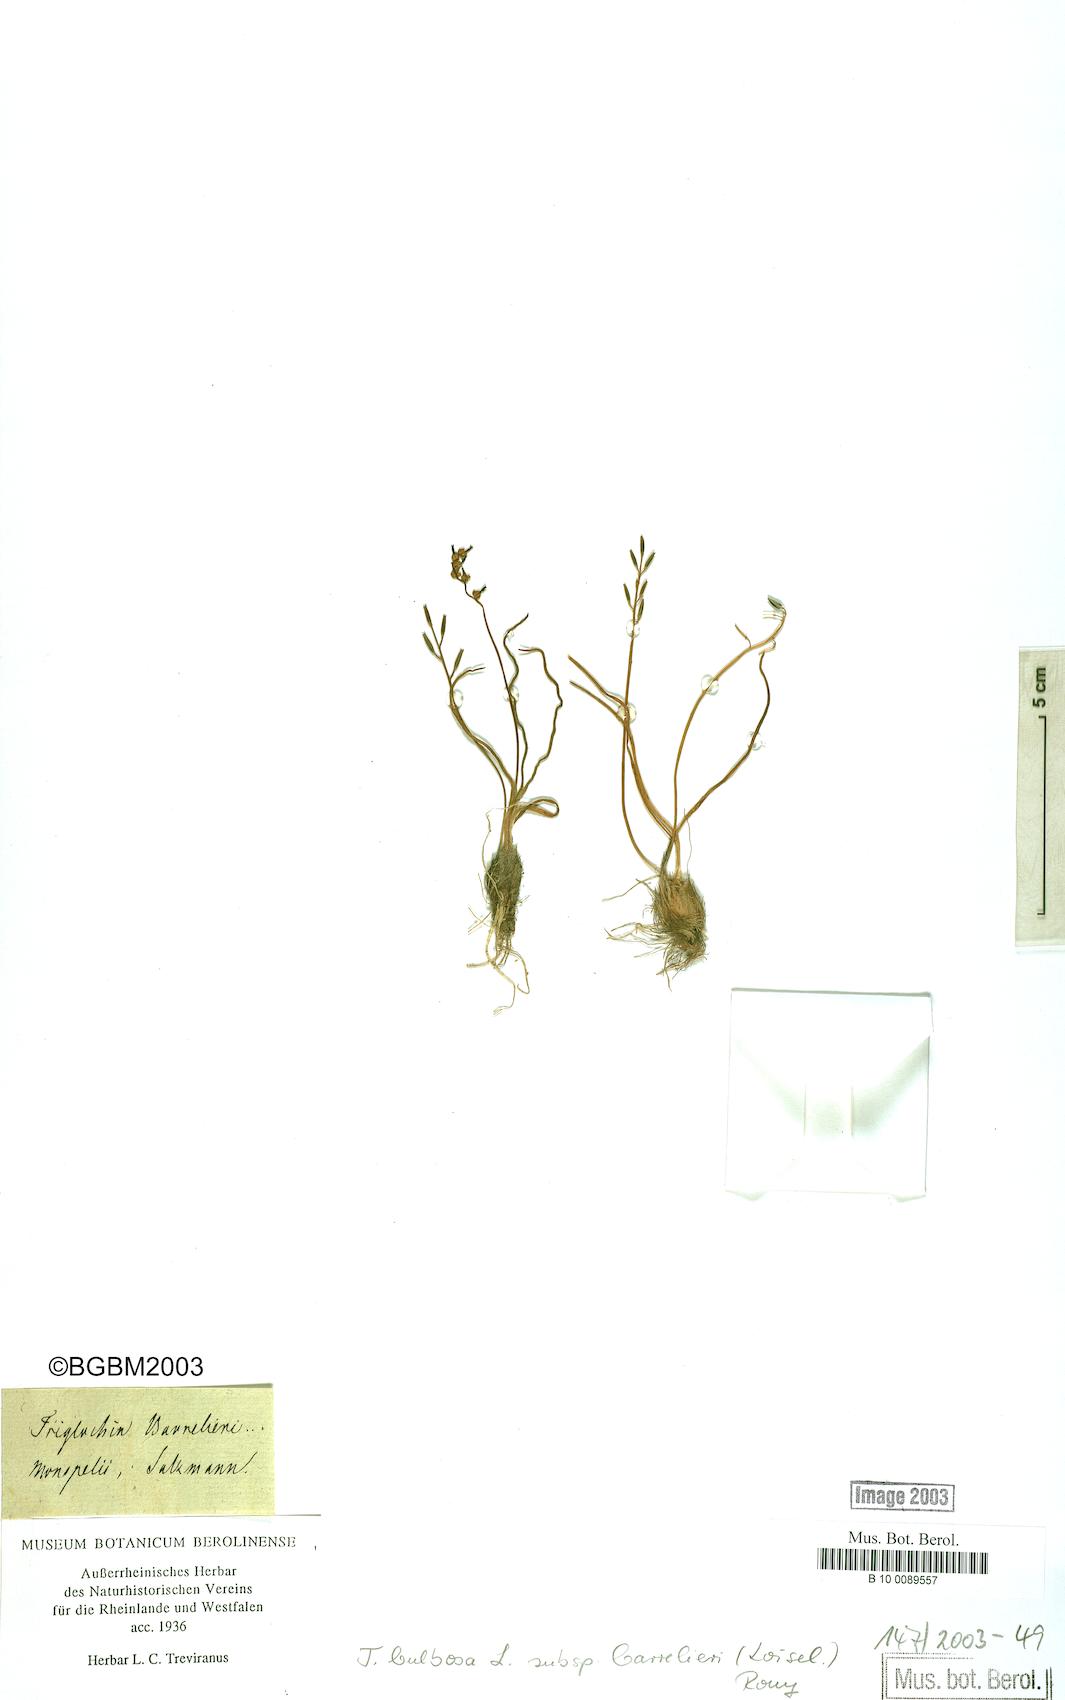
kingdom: Plantae
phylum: Tracheophyta
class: Liliopsida
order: Alismatales
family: Juncaginaceae
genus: Triglochin
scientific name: Triglochin barrelieri
